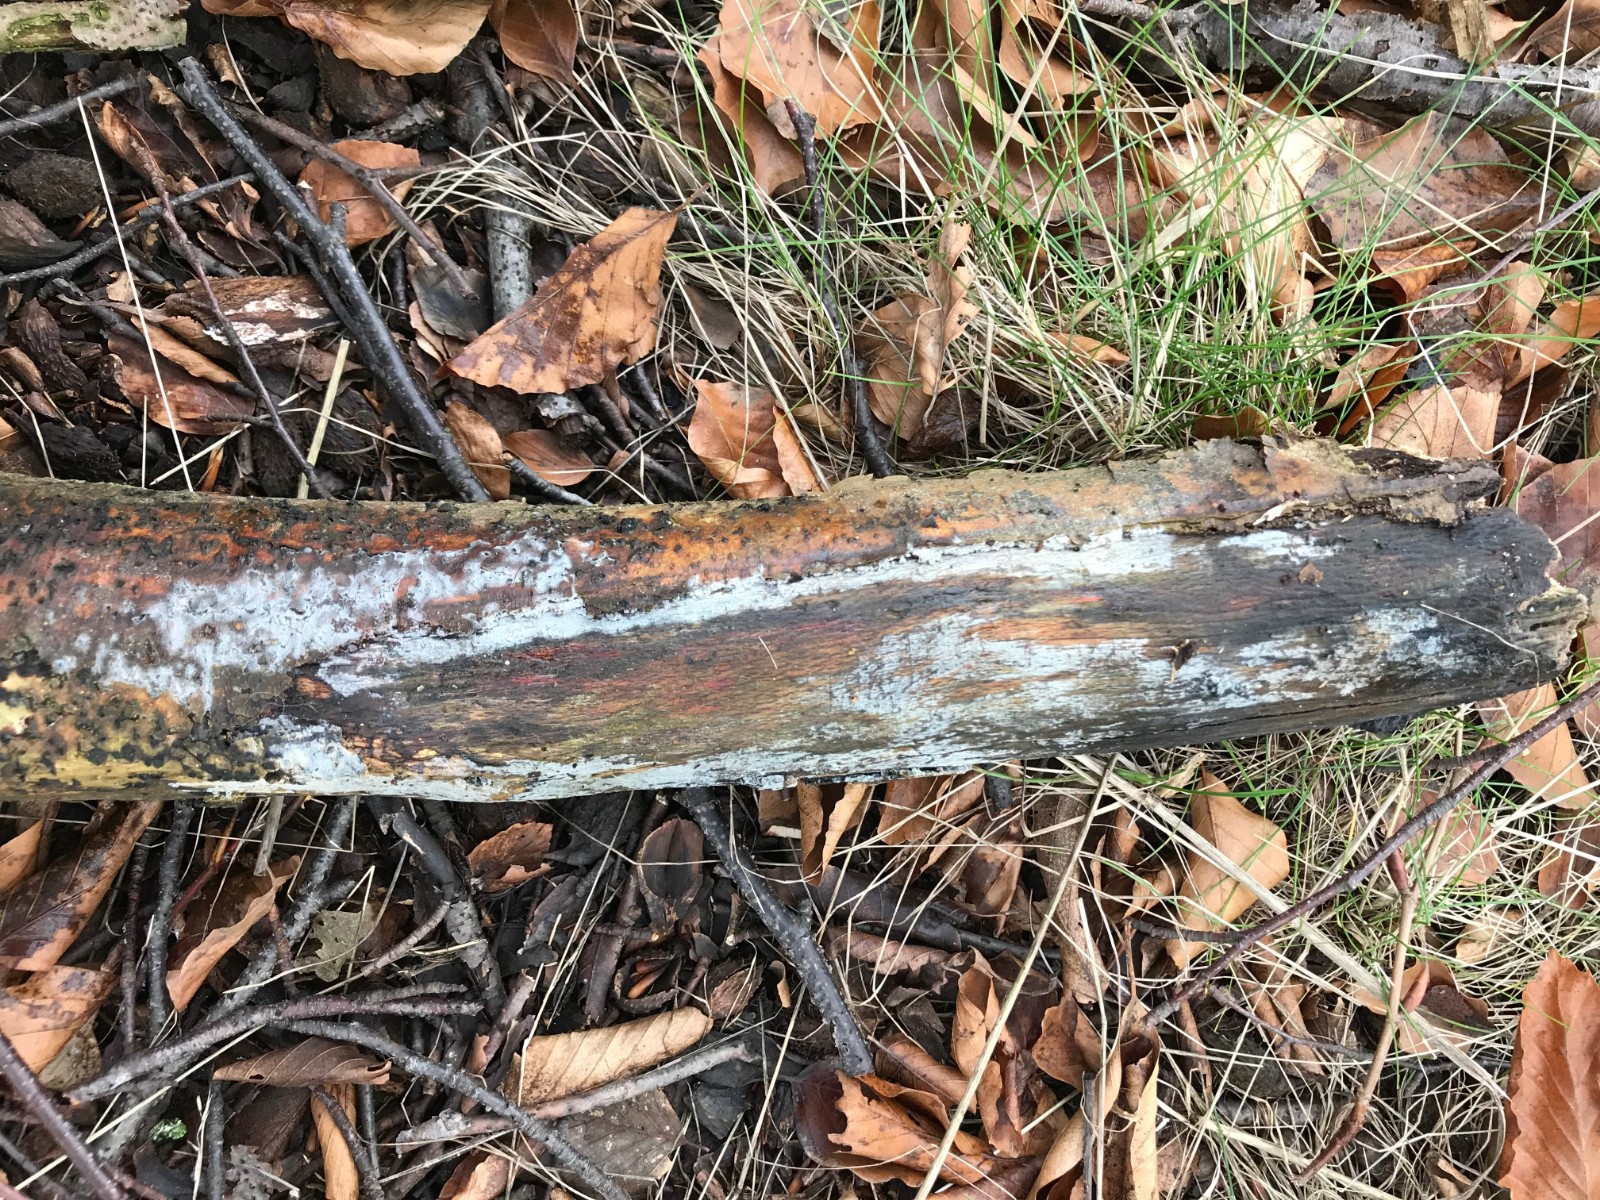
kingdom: Fungi
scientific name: Fungi
